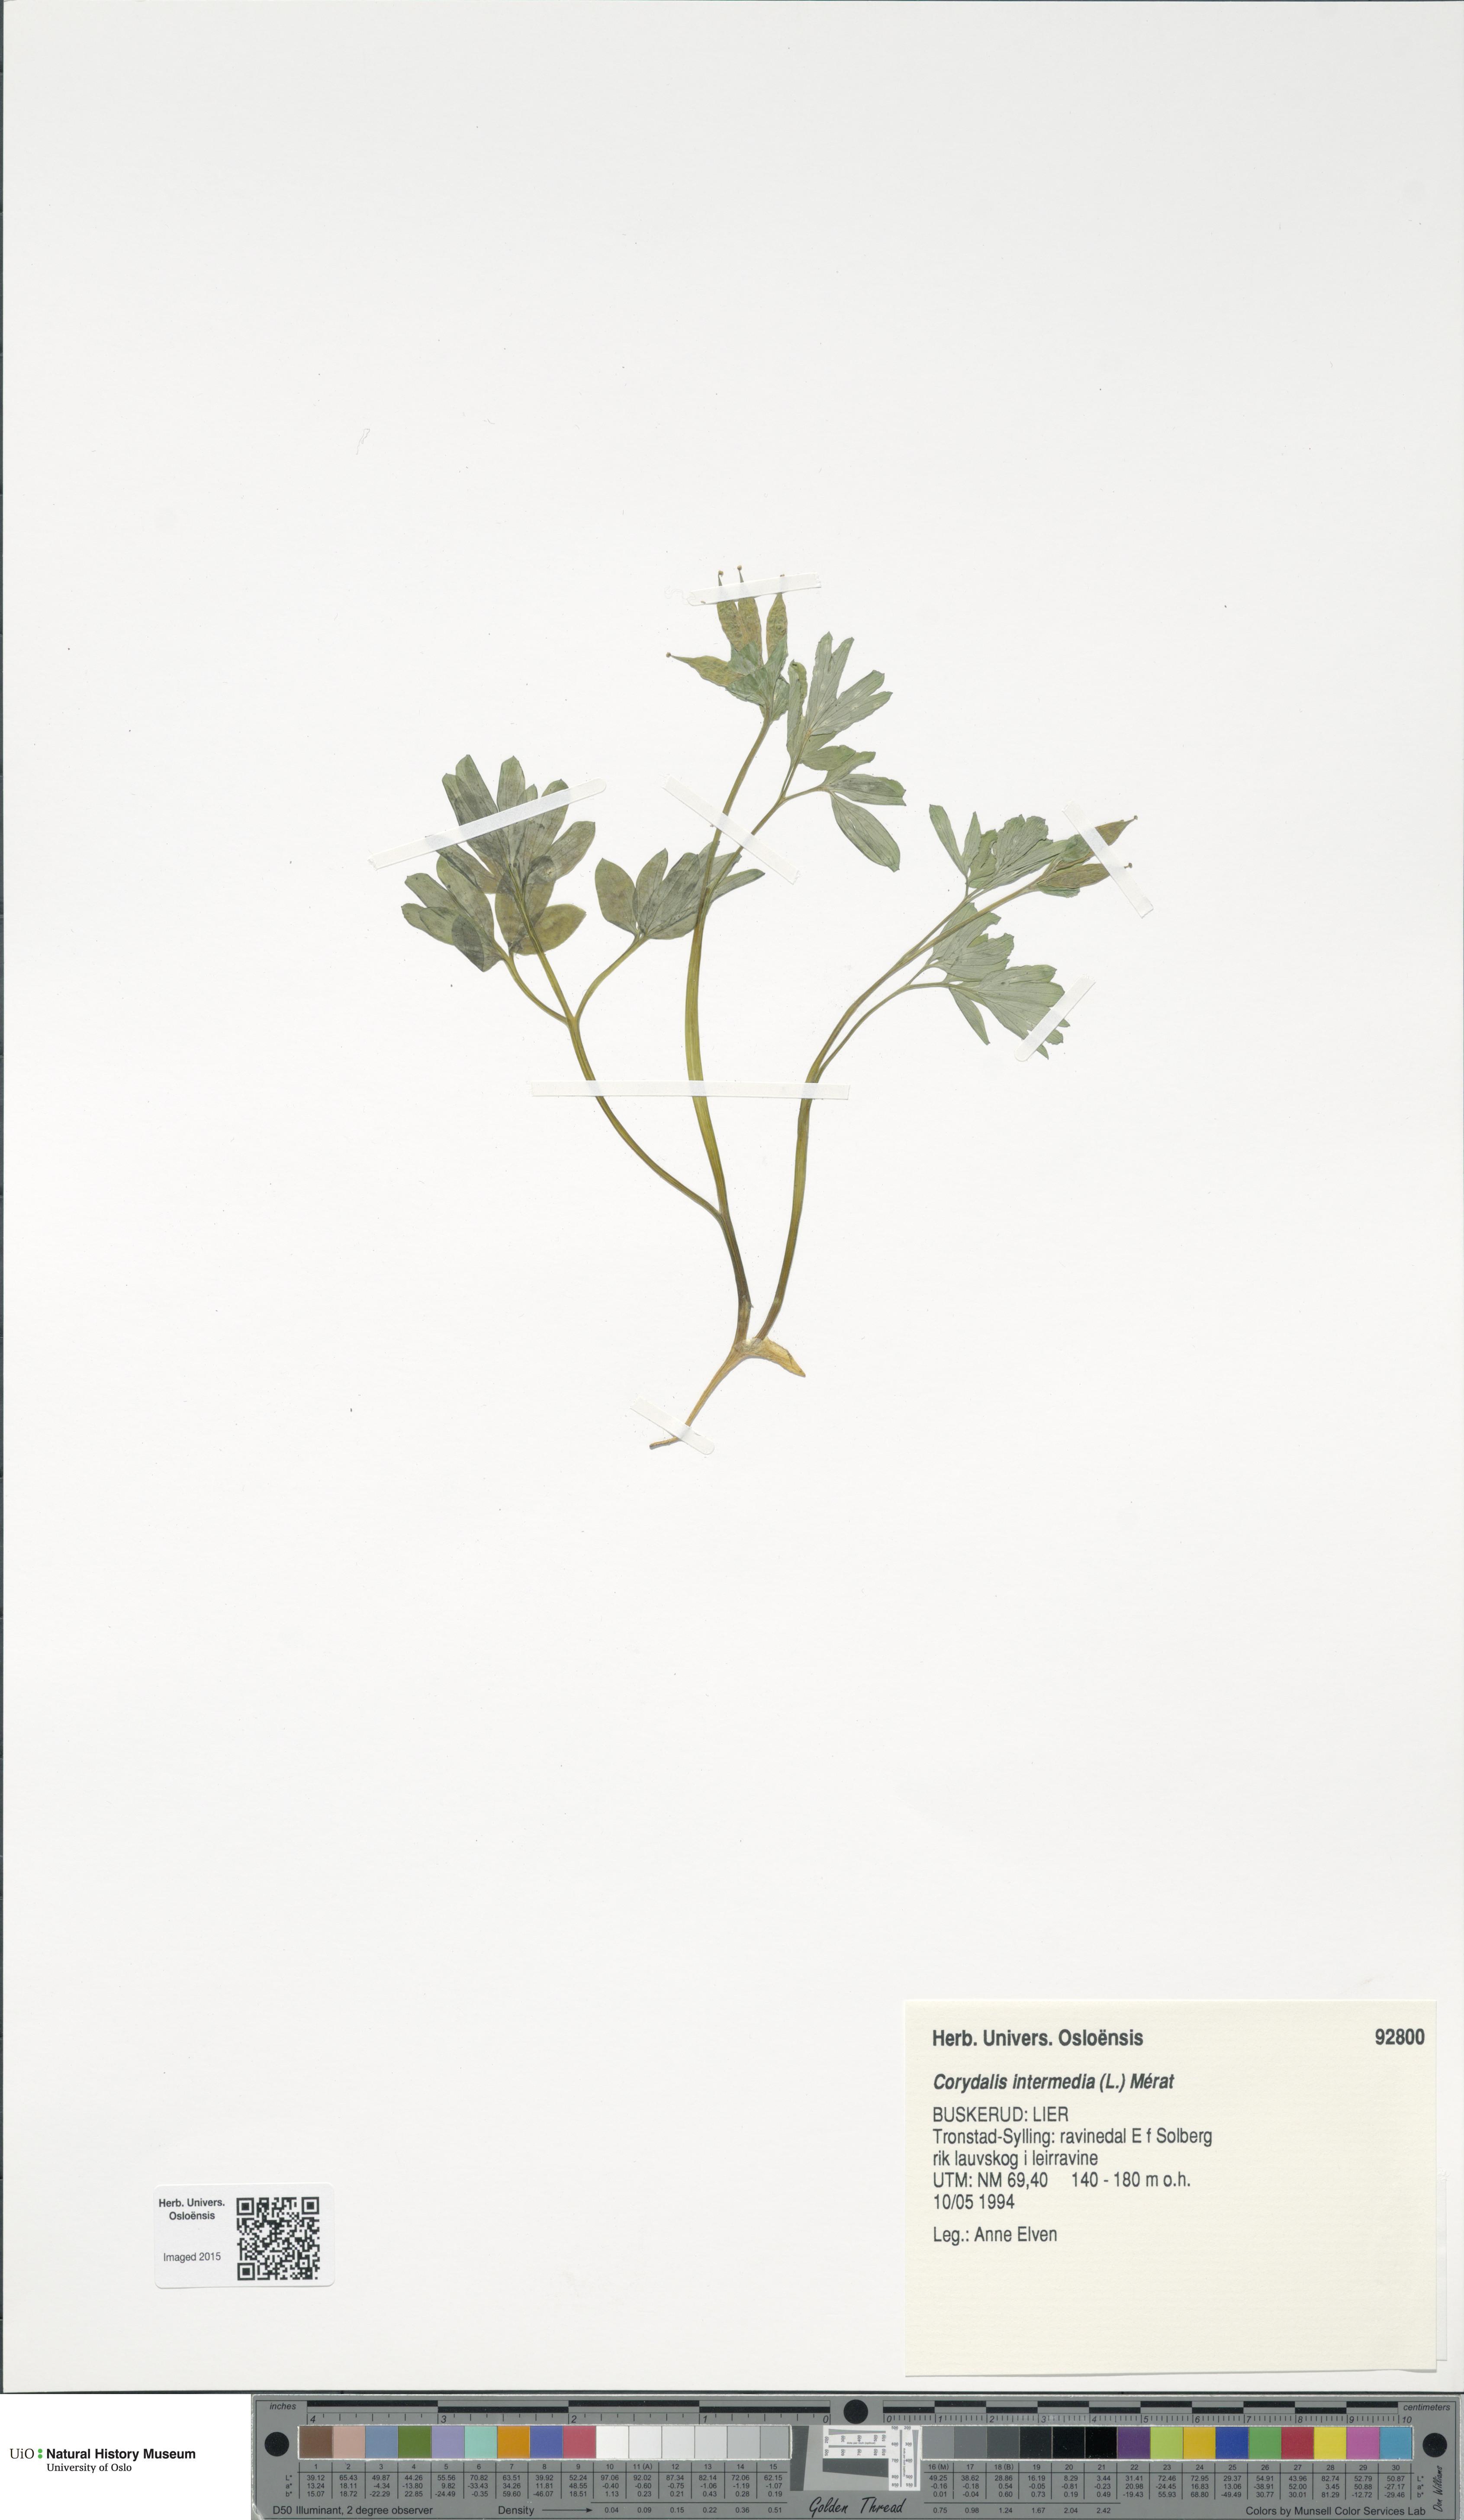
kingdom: Plantae
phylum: Tracheophyta
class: Magnoliopsida
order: Ranunculales
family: Papaveraceae
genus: Corydalis
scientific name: Corydalis intermedia
